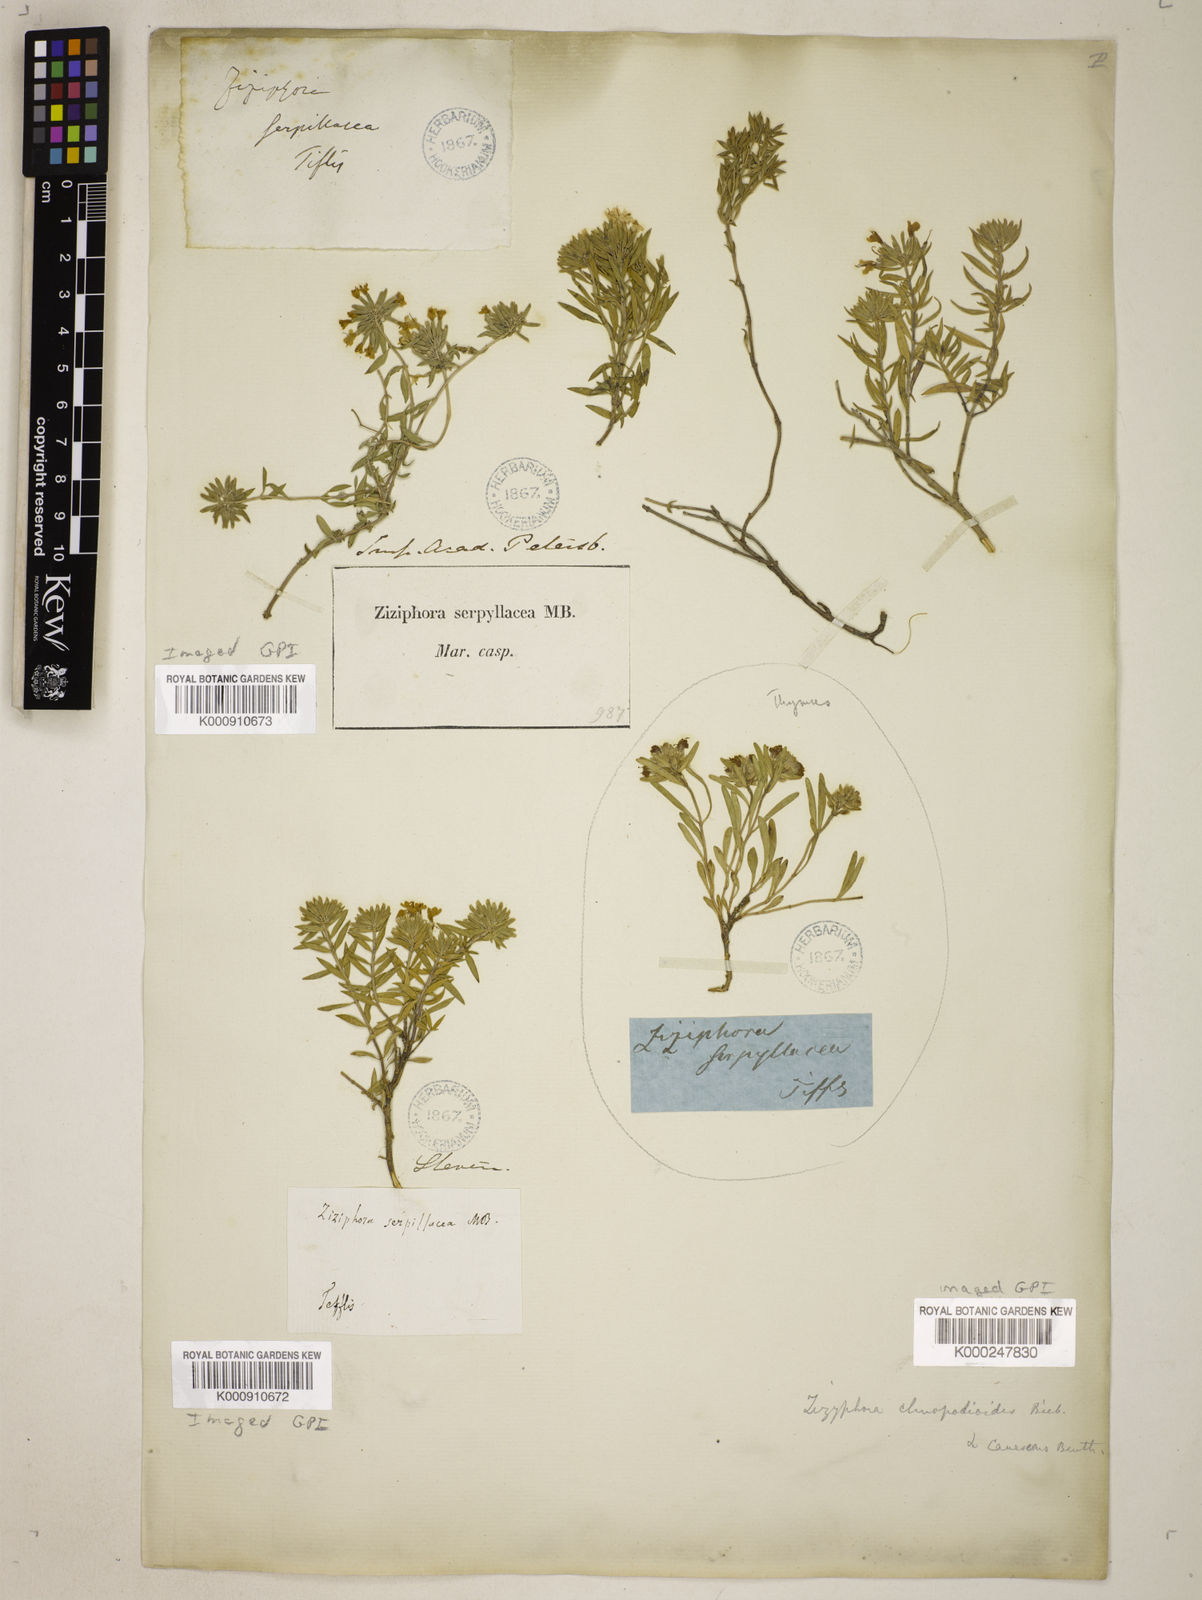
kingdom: Plantae
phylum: Tracheophyta
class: Magnoliopsida
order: Lamiales
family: Lamiaceae
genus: Ziziphora
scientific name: Ziziphora clinopodioides
